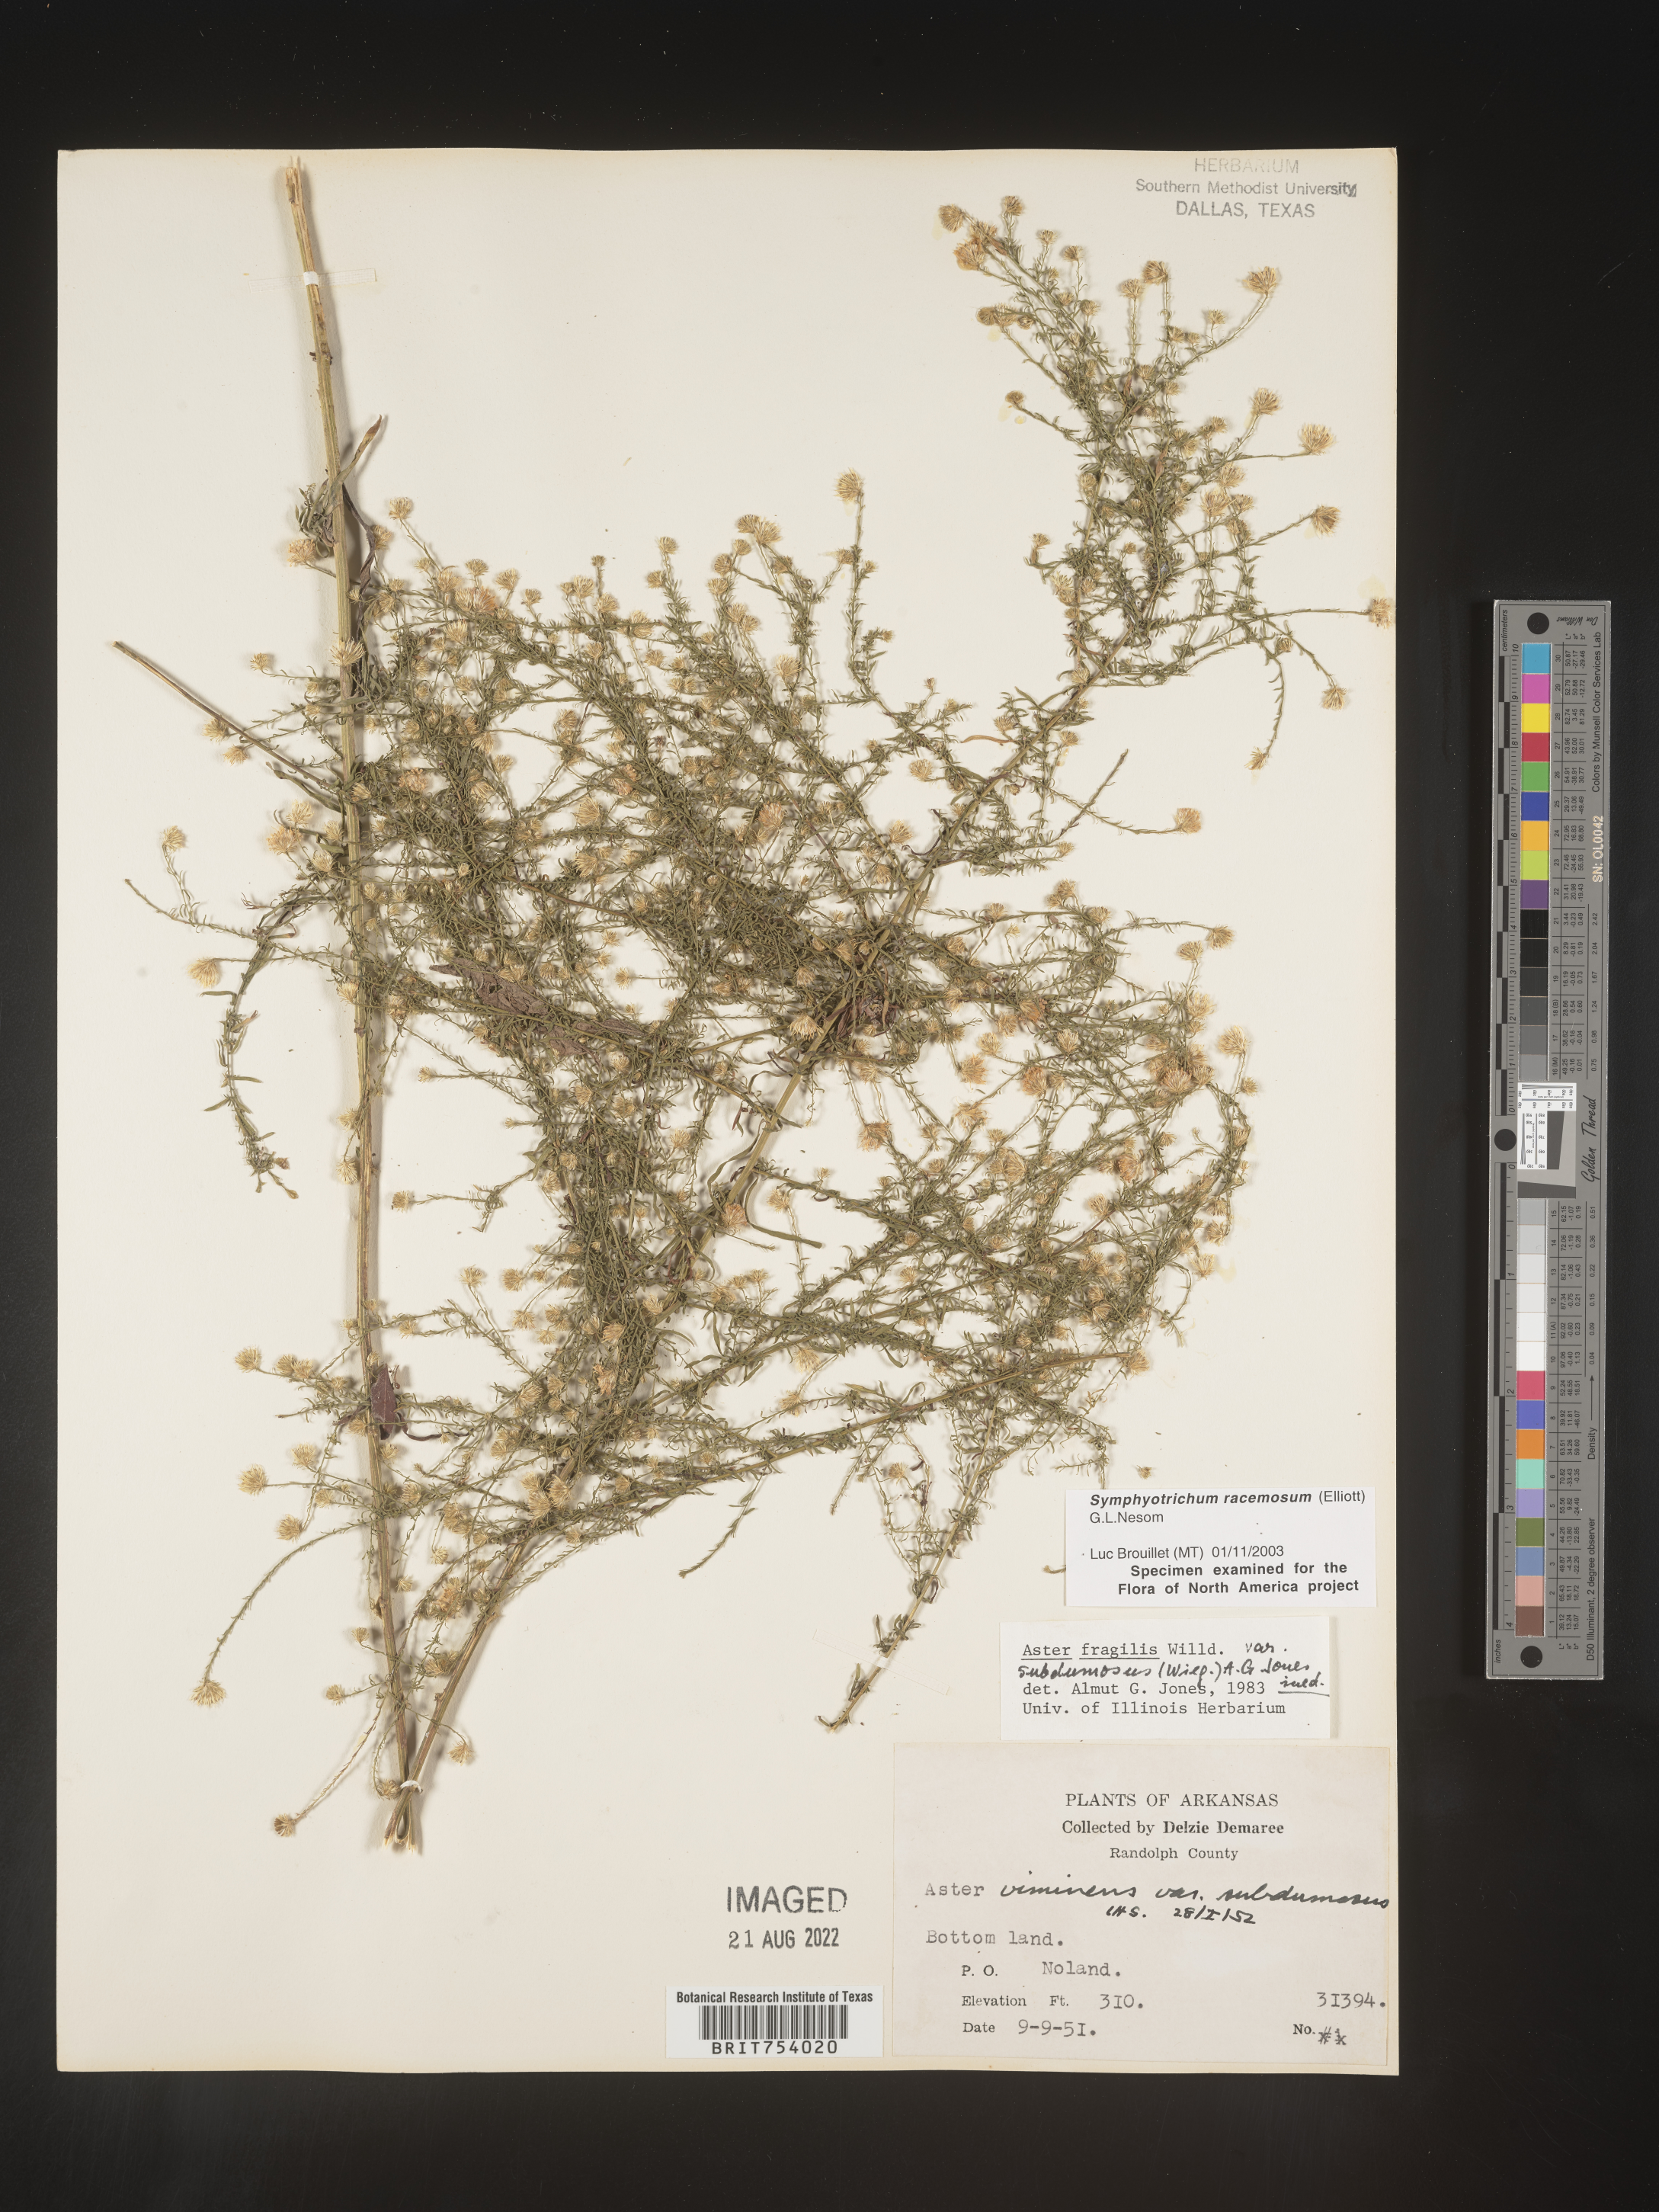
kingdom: Plantae
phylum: Tracheophyta
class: Magnoliopsida
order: Asterales
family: Asteraceae
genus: Symphyotrichum
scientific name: Symphyotrichum racemosum
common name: Small white aster
